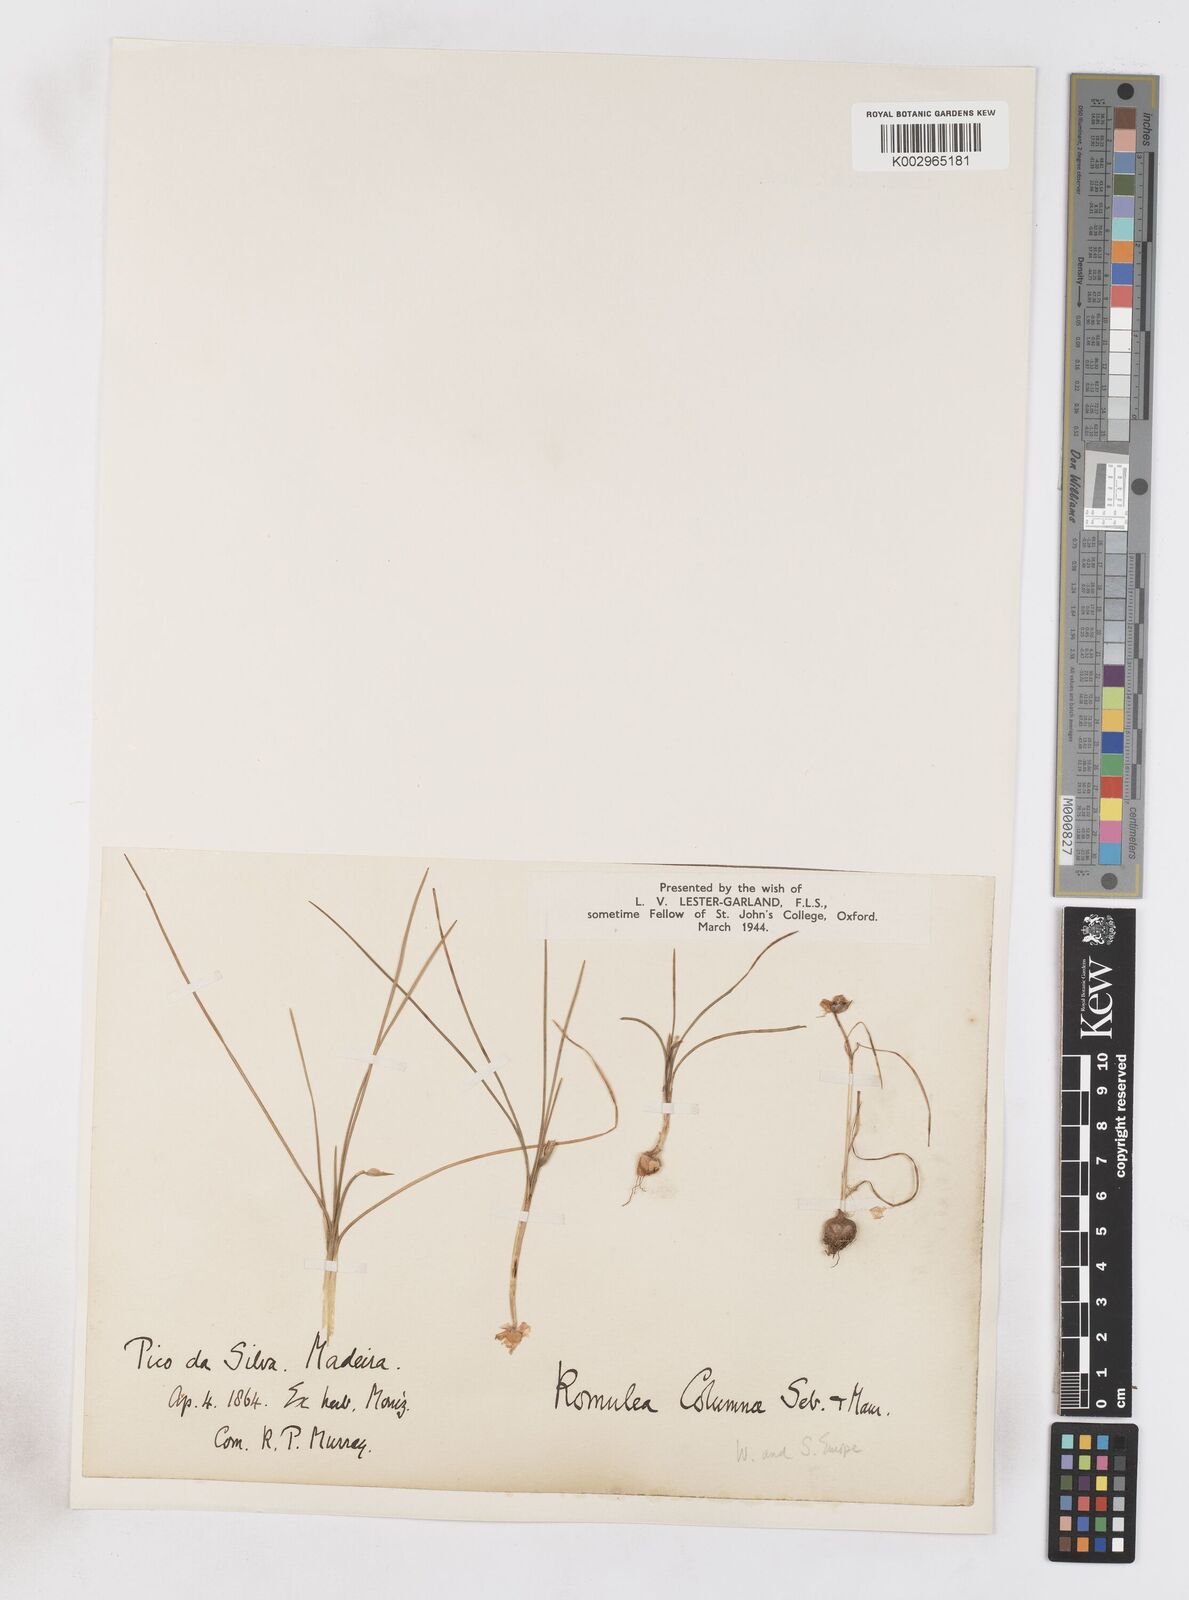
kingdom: Plantae
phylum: Tracheophyta
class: Liliopsida
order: Asparagales
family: Iridaceae
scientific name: Iridaceae
